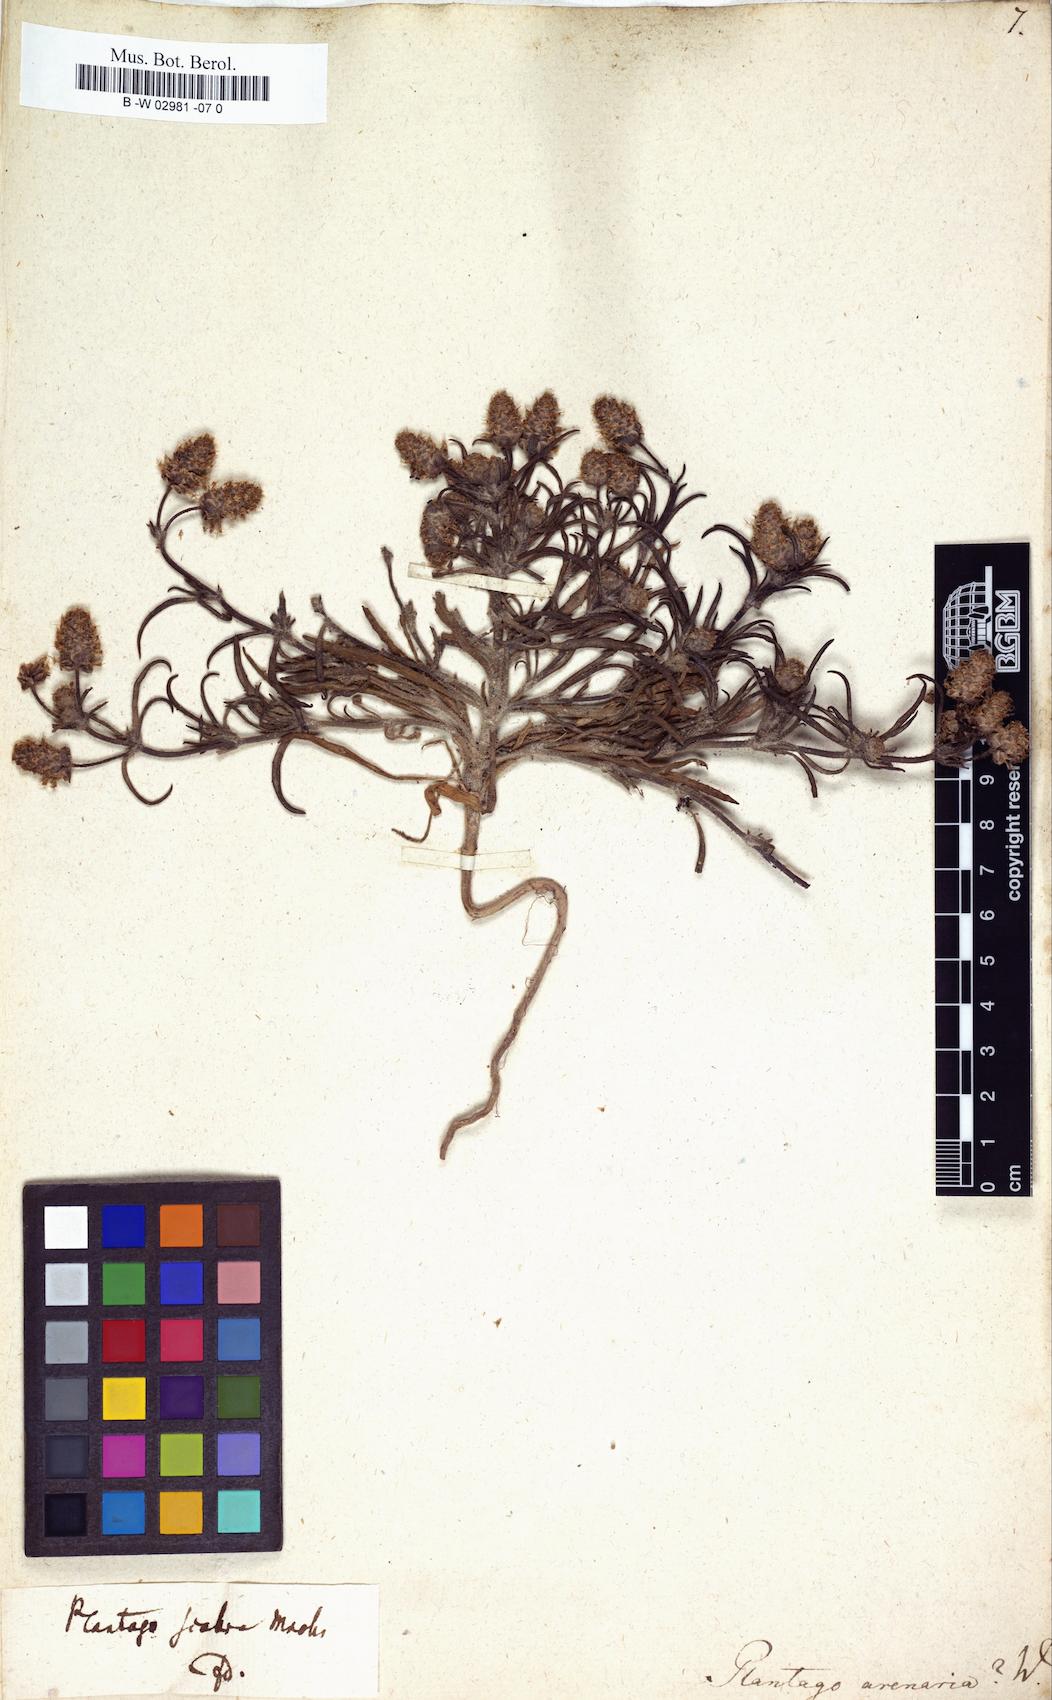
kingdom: Plantae
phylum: Tracheophyta
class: Magnoliopsida
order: Lamiales
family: Plantaginaceae
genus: Plantago
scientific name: Plantago arenaria
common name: Branched plantain
